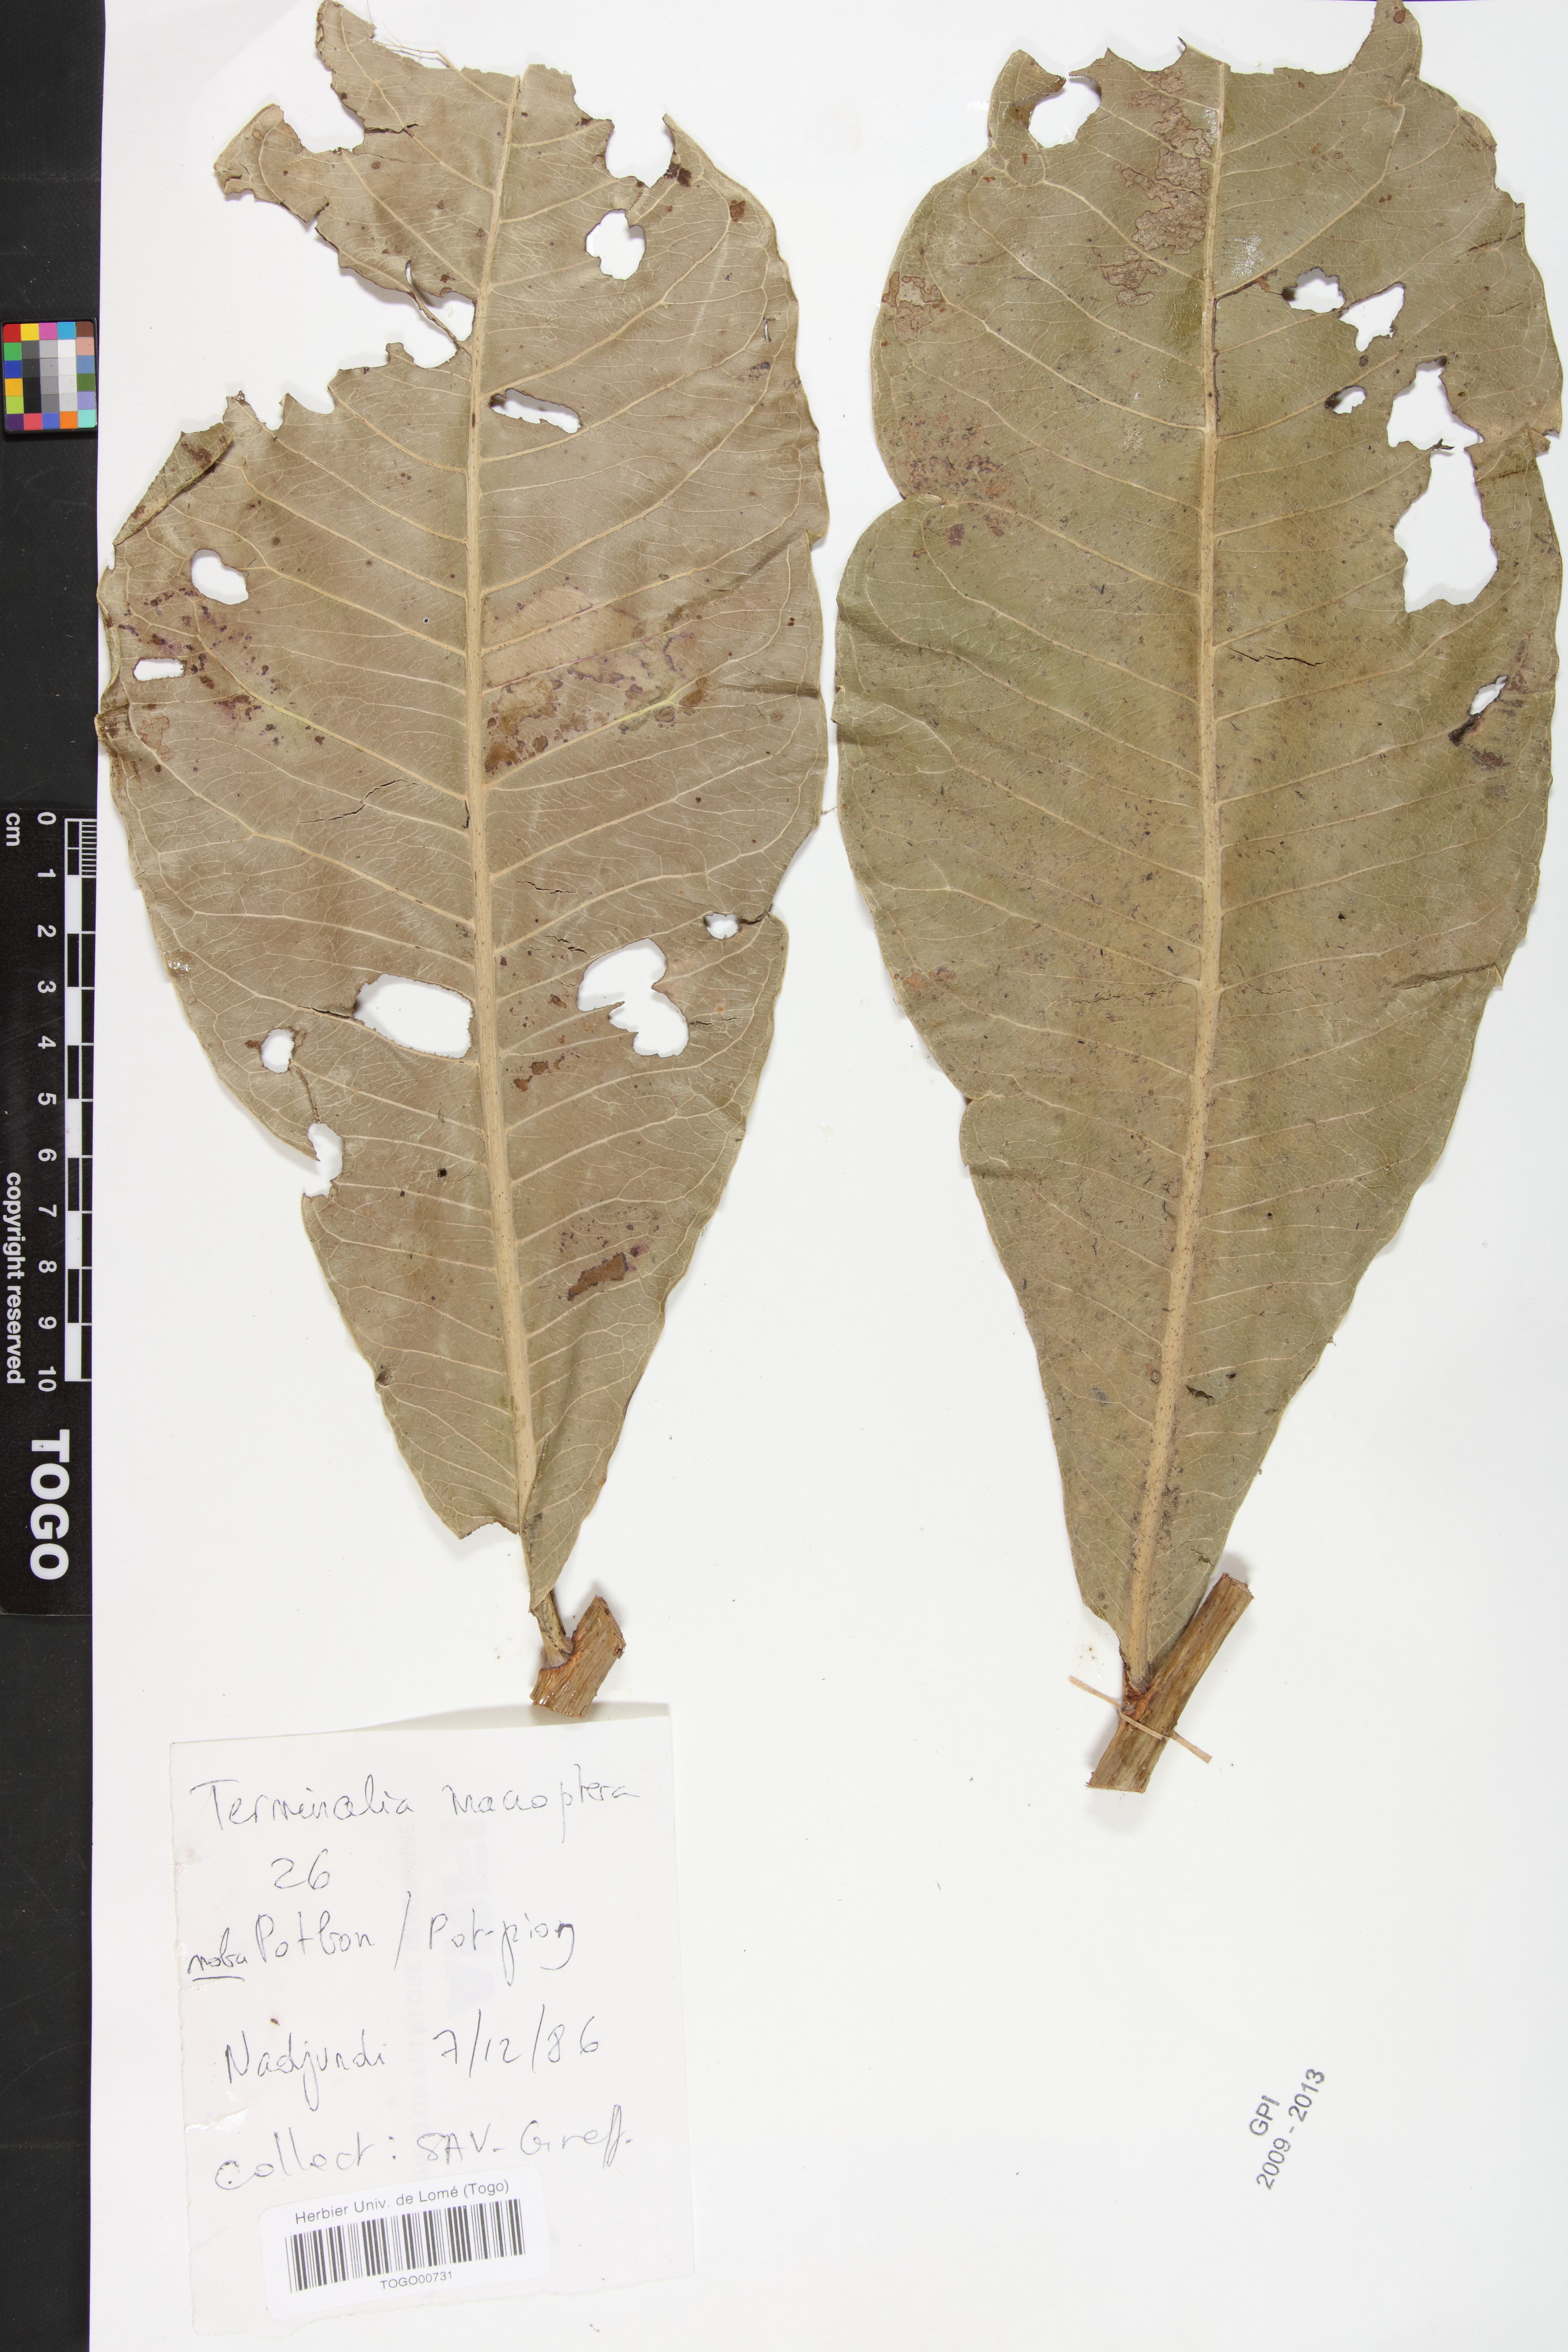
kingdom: Plantae
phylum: Tracheophyta
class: Magnoliopsida
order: Myrtales
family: Combretaceae
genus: Terminalia
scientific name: Terminalia macroptera
